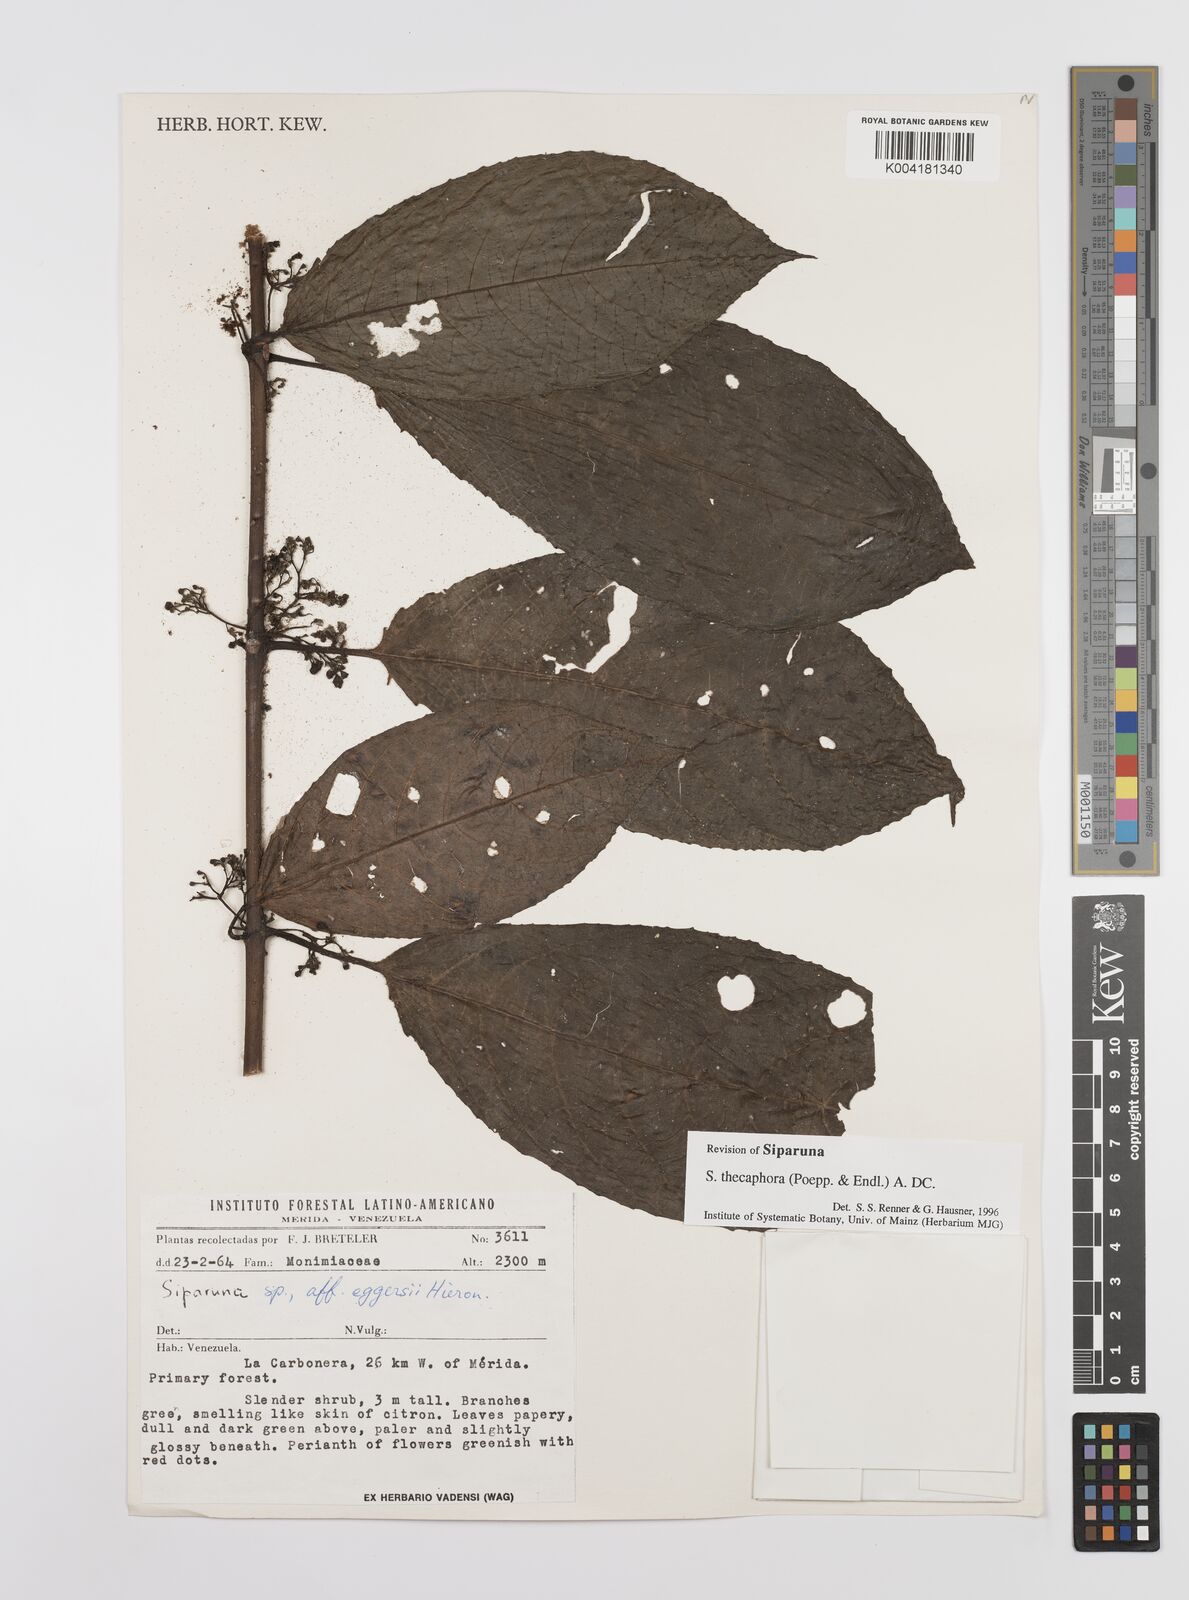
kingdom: Plantae
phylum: Tracheophyta
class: Magnoliopsida
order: Laurales
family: Siparunaceae
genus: Siparuna
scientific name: Siparuna thecaphora
